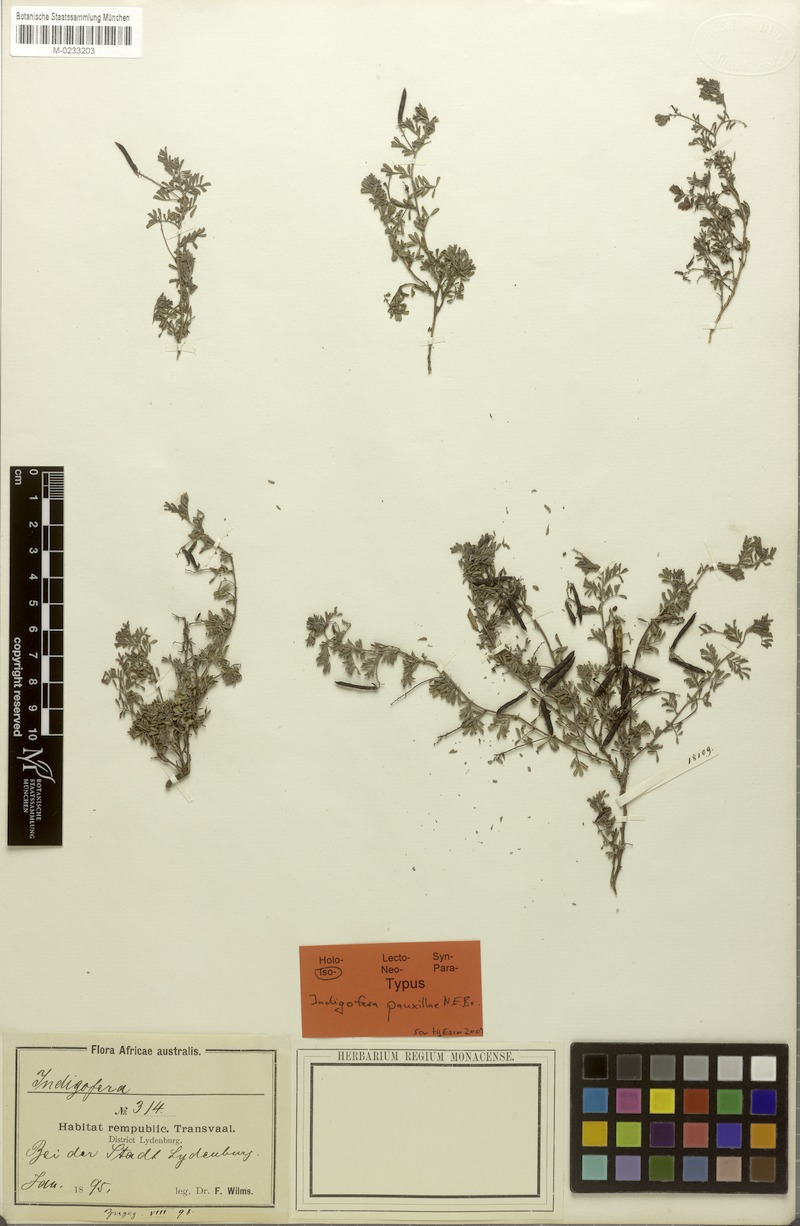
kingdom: Plantae
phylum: Tracheophyta
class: Magnoliopsida
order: Fabales
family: Fabaceae
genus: Indigofera
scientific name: Indigofera evansiana
